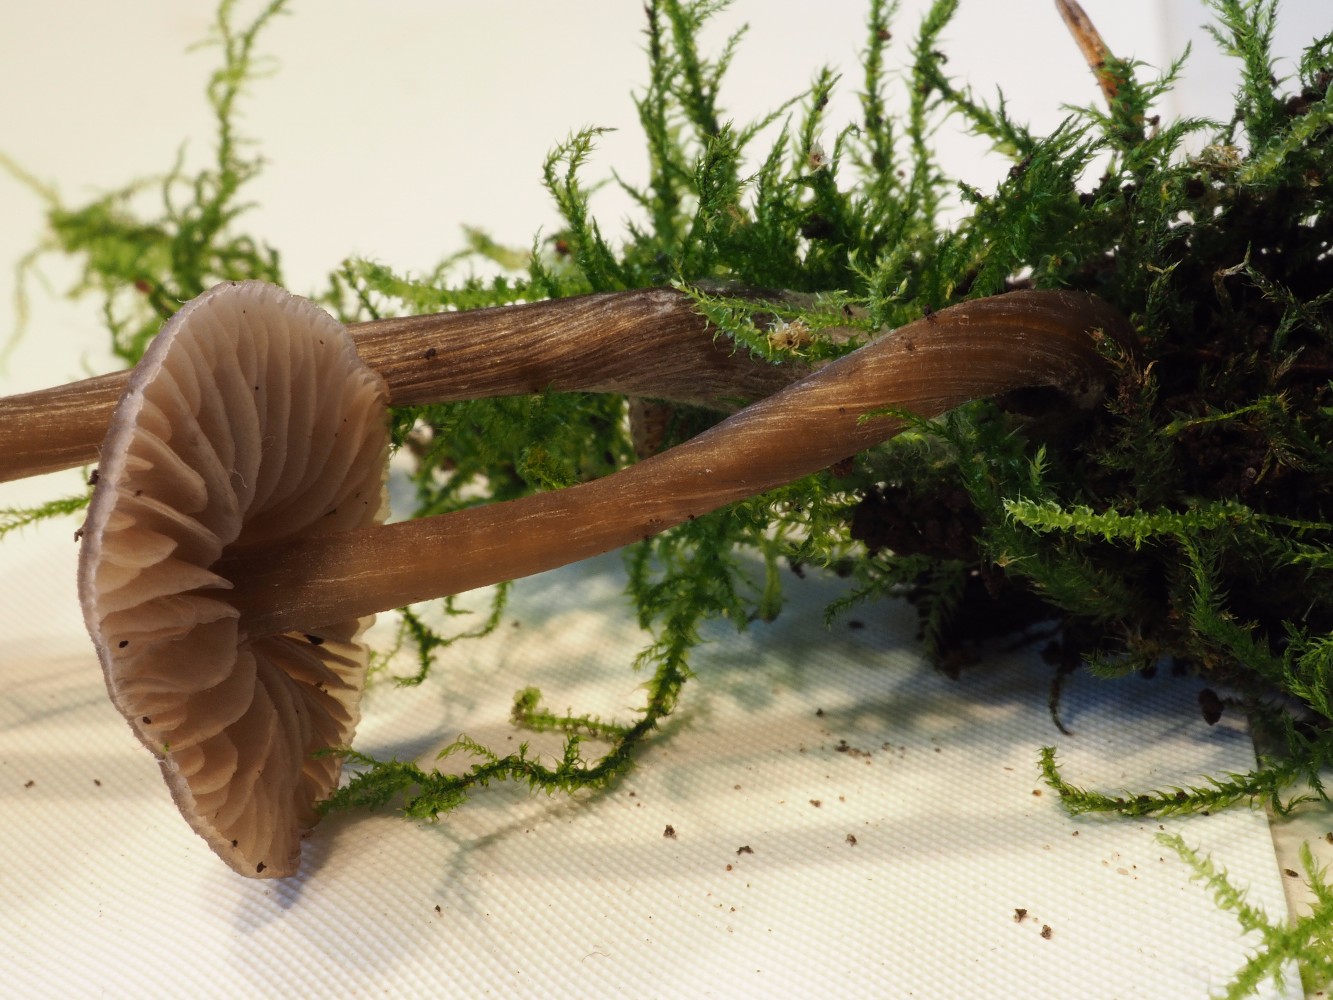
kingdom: Fungi
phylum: Basidiomycota
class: Agaricomycetes
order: Agaricales
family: Entolomataceae
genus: Entoloma
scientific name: Entoloma
